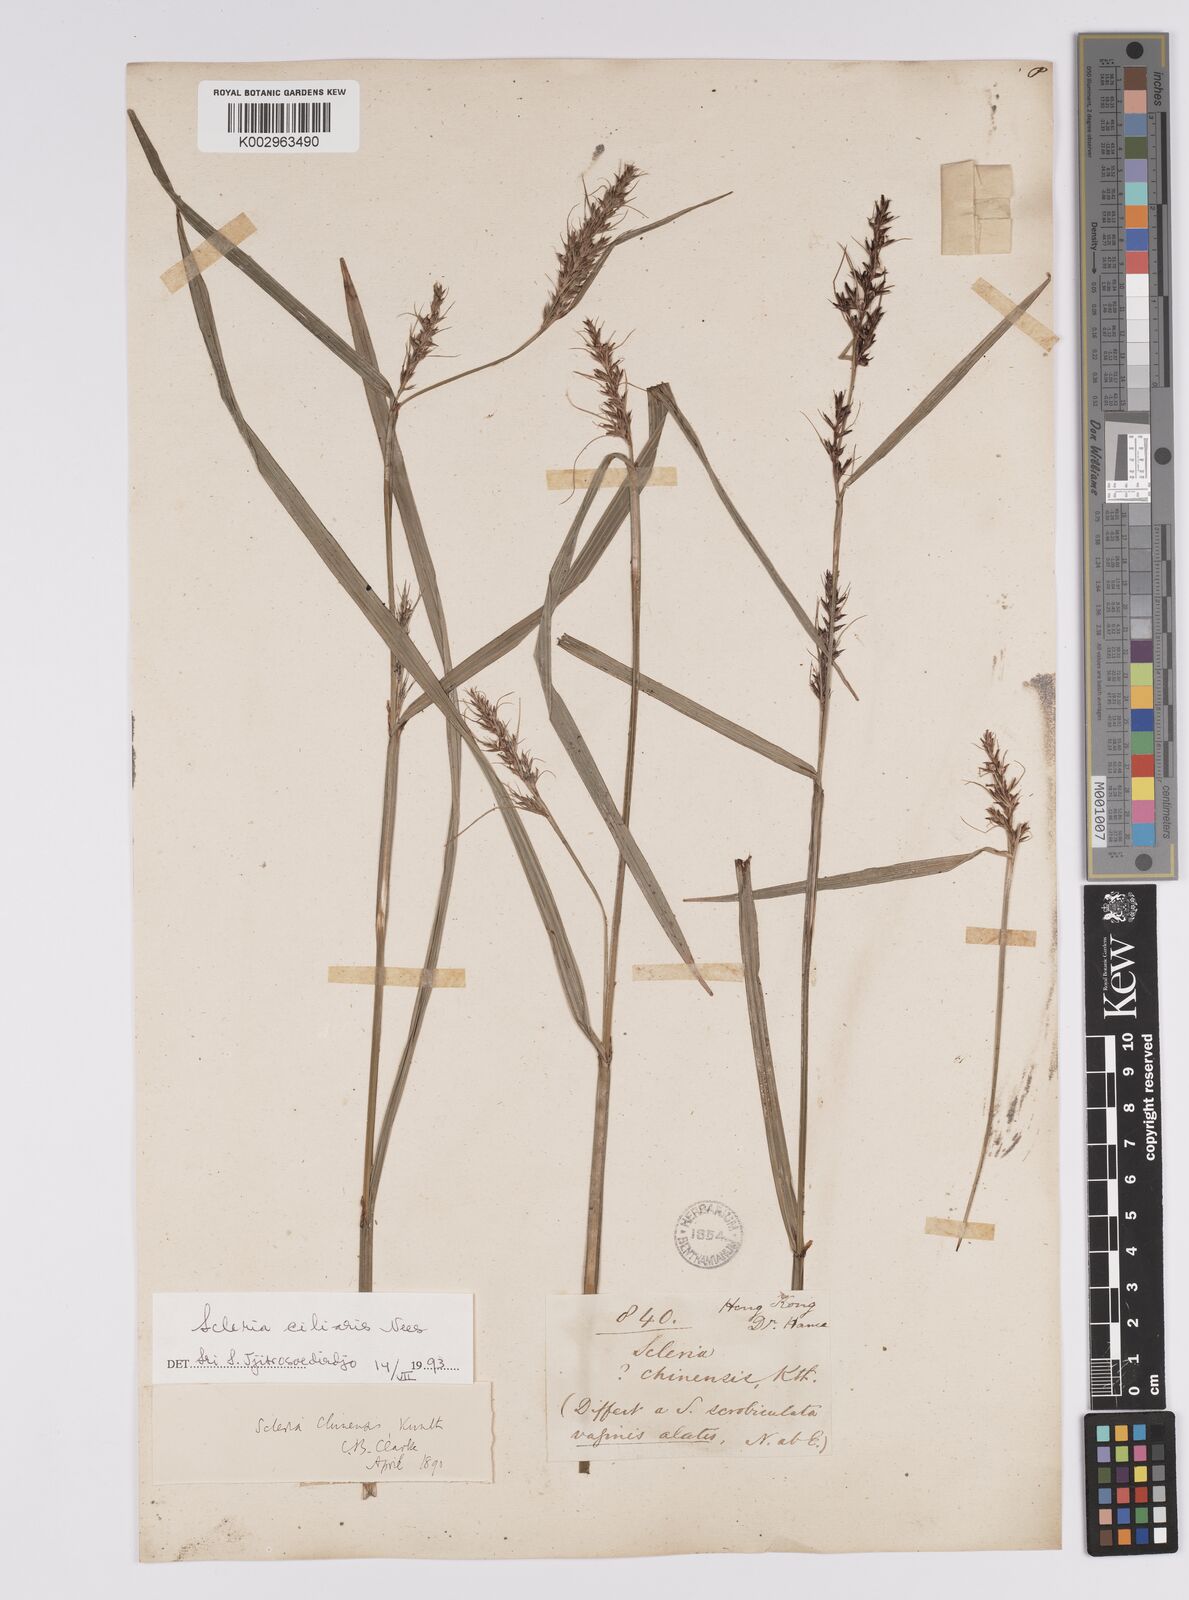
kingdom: Plantae
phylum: Tracheophyta
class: Liliopsida
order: Poales
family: Cyperaceae
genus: Scleria
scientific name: Scleria ciliaris
